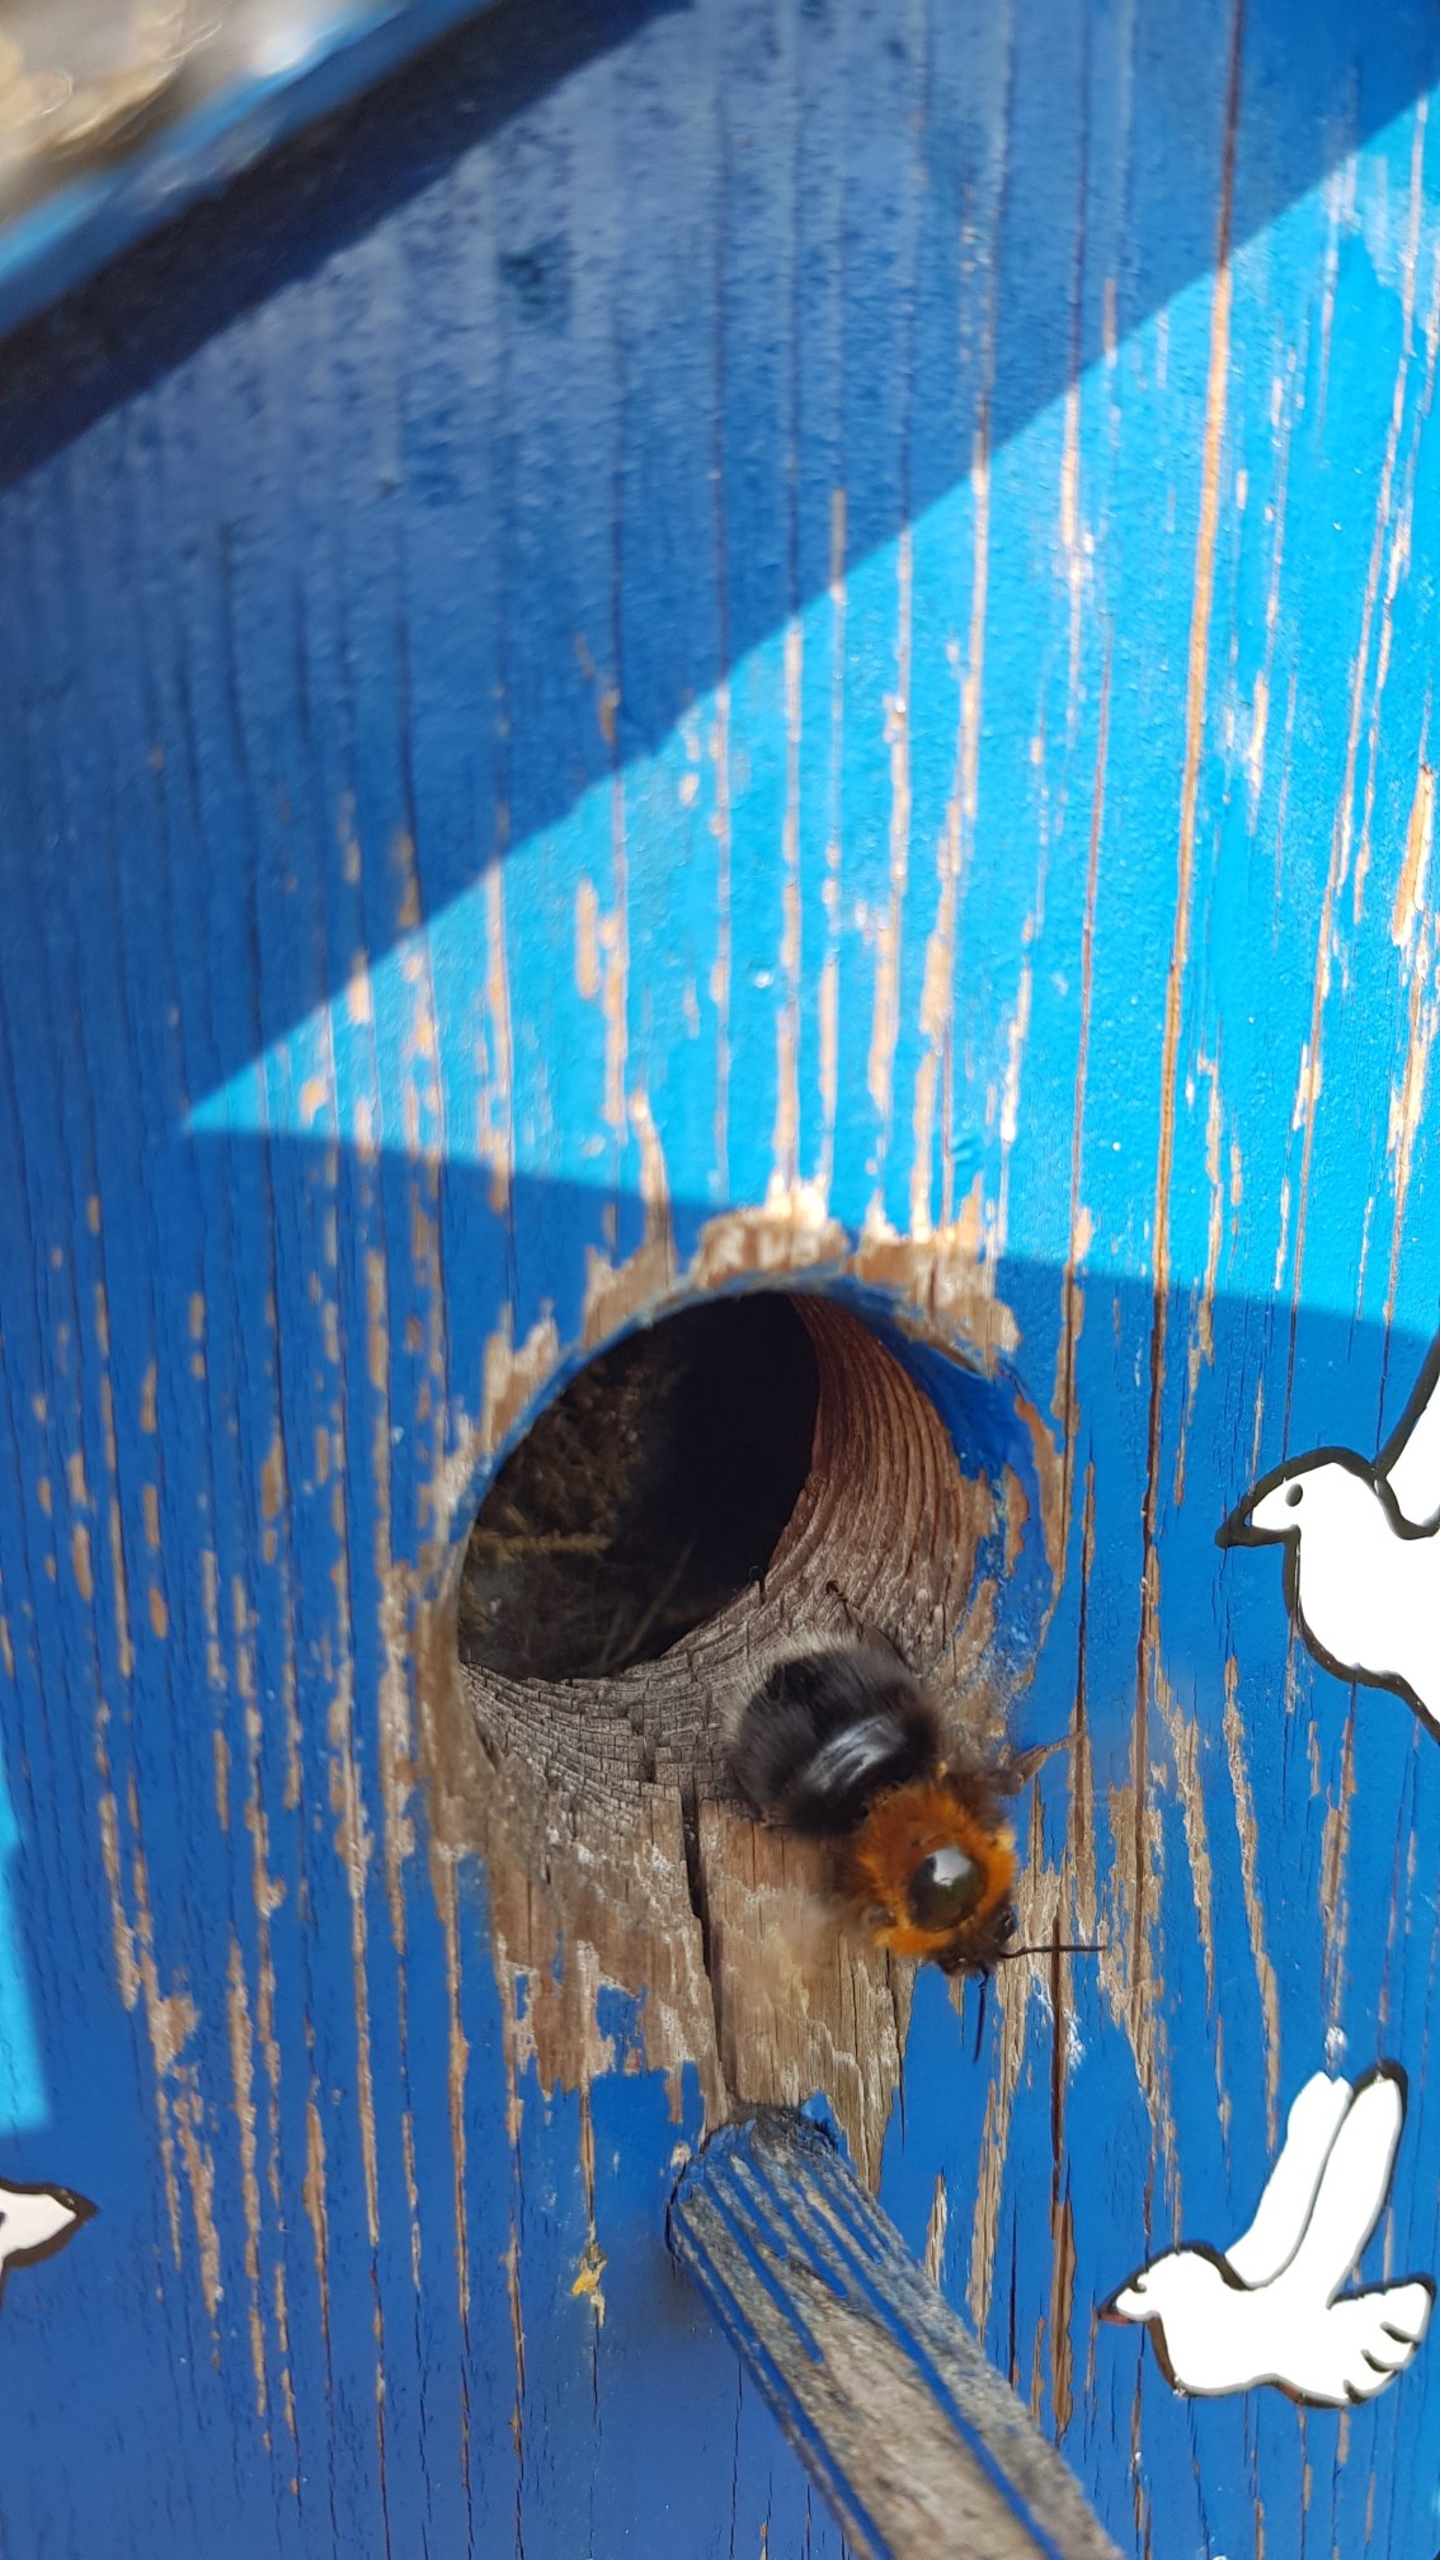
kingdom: Animalia
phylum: Arthropoda
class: Insecta
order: Hymenoptera
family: Apidae
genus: Bombus
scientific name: Bombus hypnorum
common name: Hushumle
